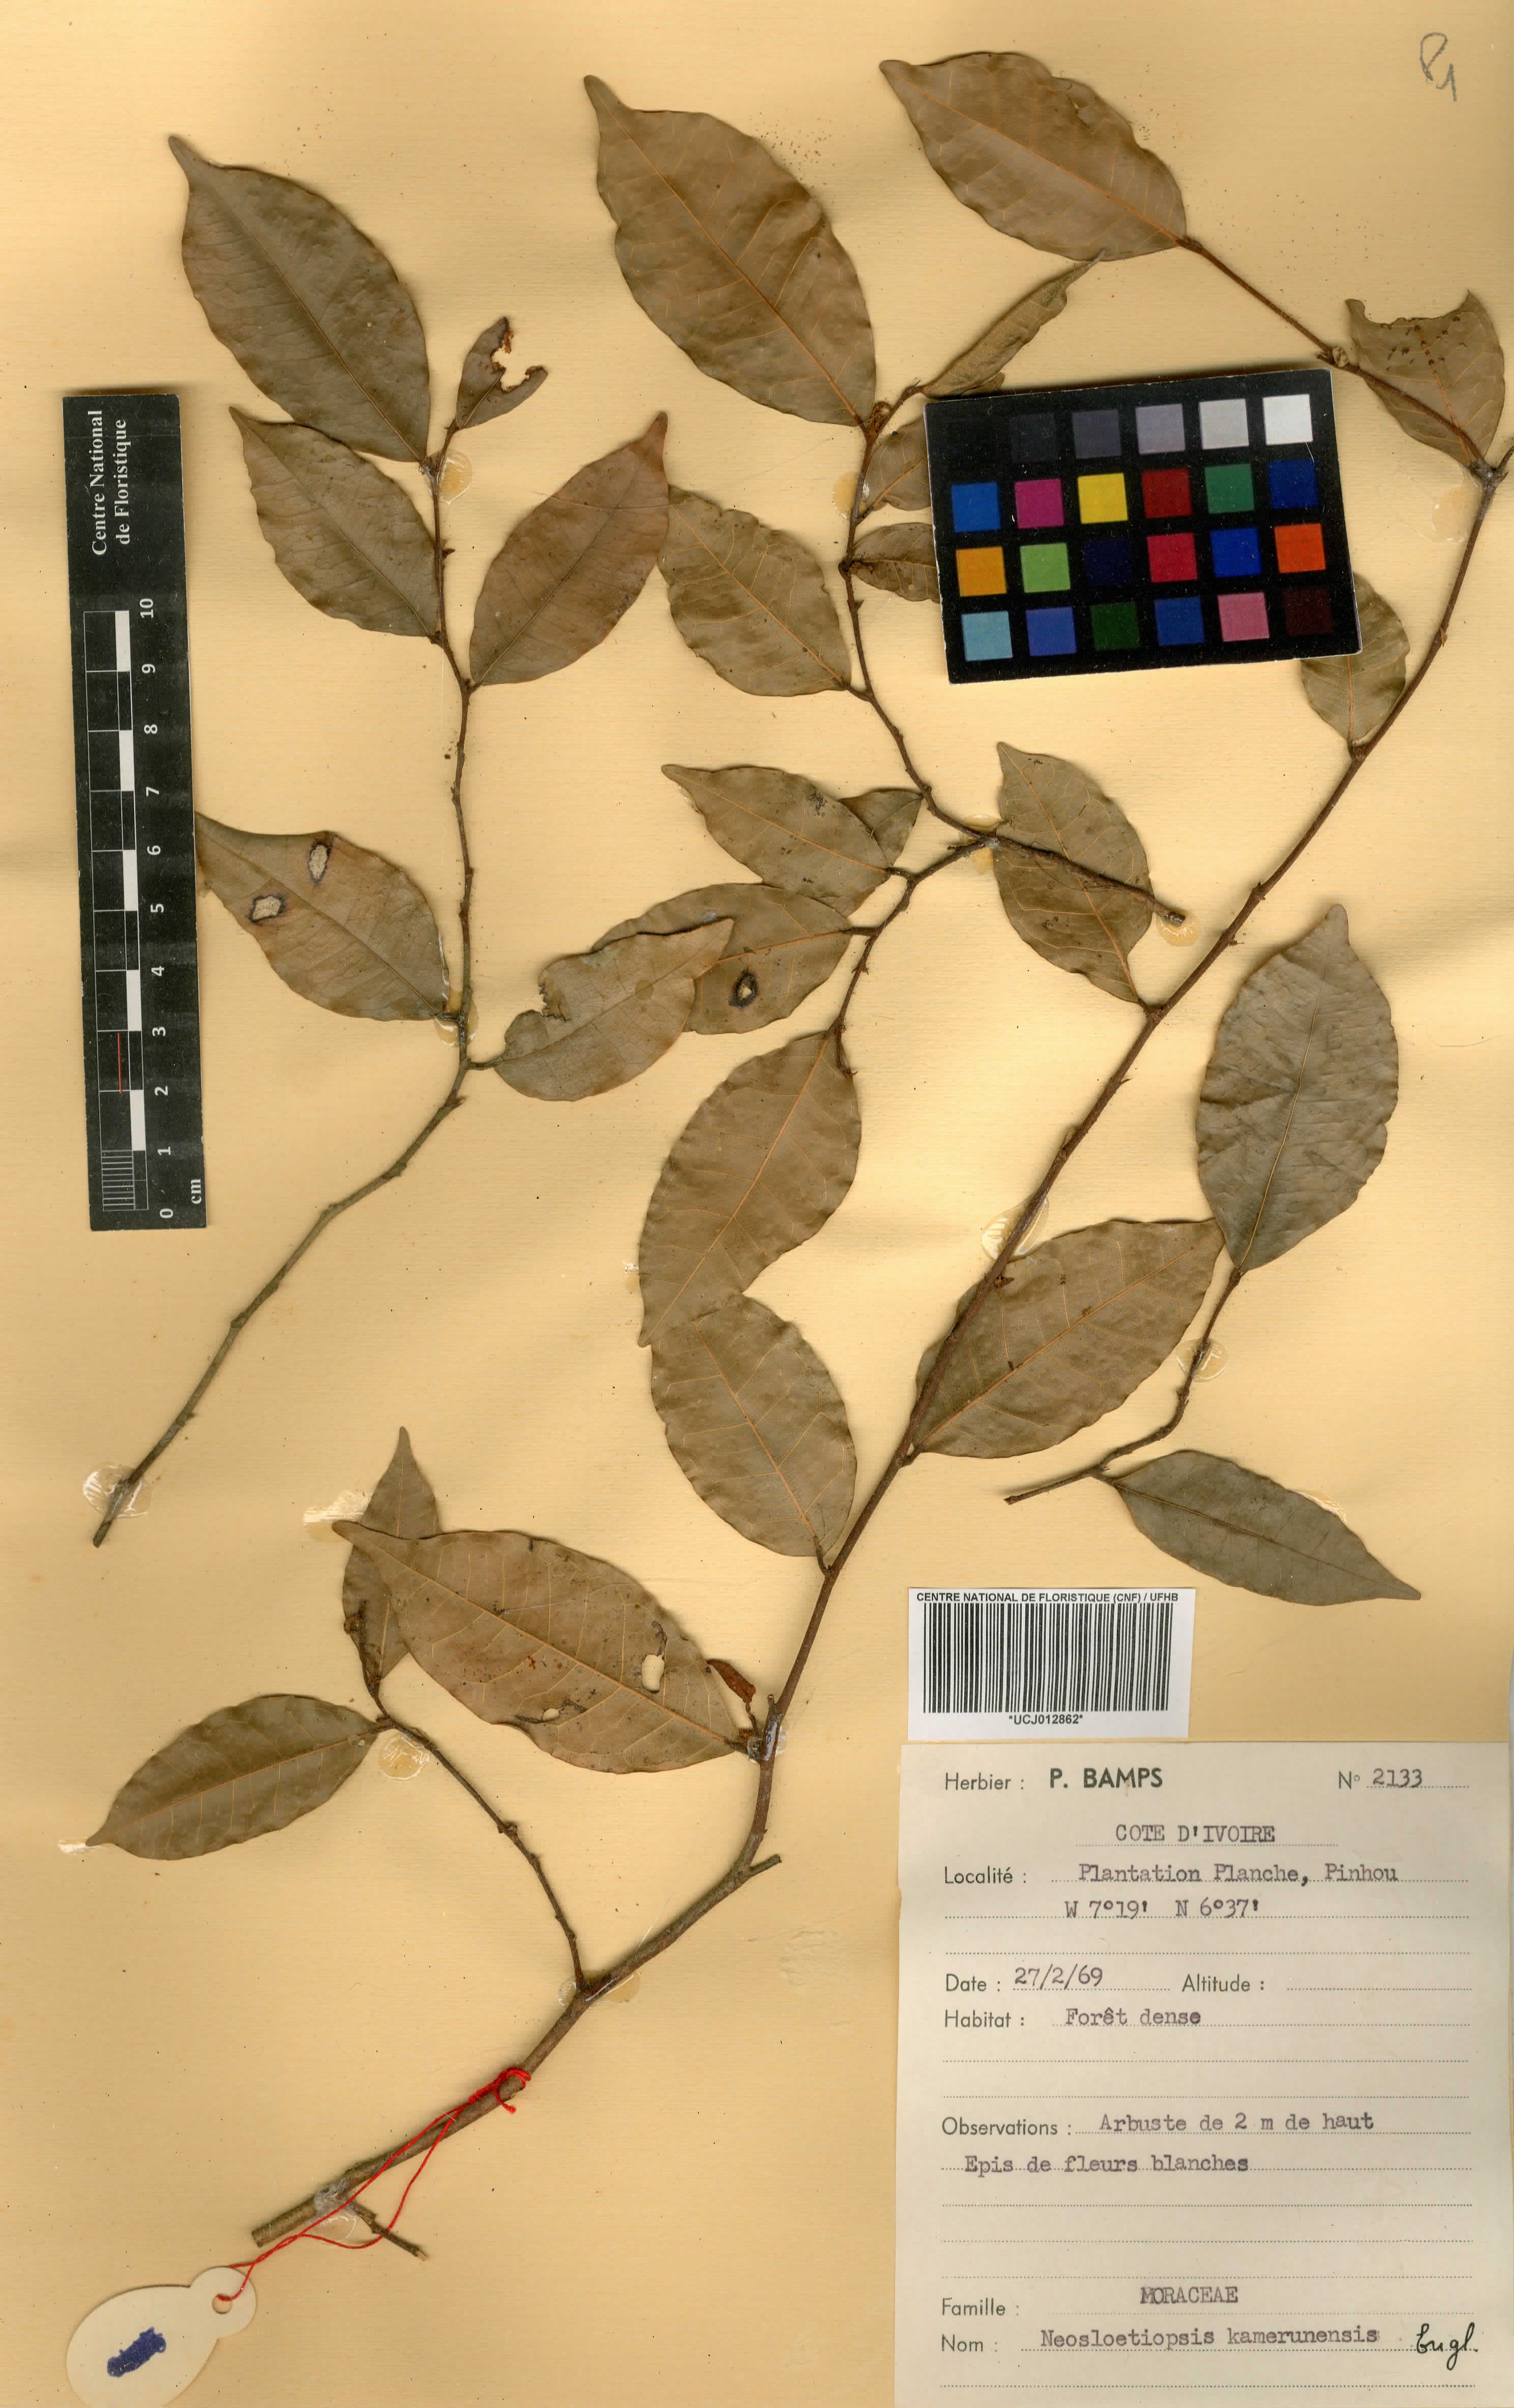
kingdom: Plantae
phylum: Tracheophyta
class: Magnoliopsida
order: Rosales
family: Moraceae
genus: Sloetiopsis
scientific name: Sloetiopsis usambarensis
